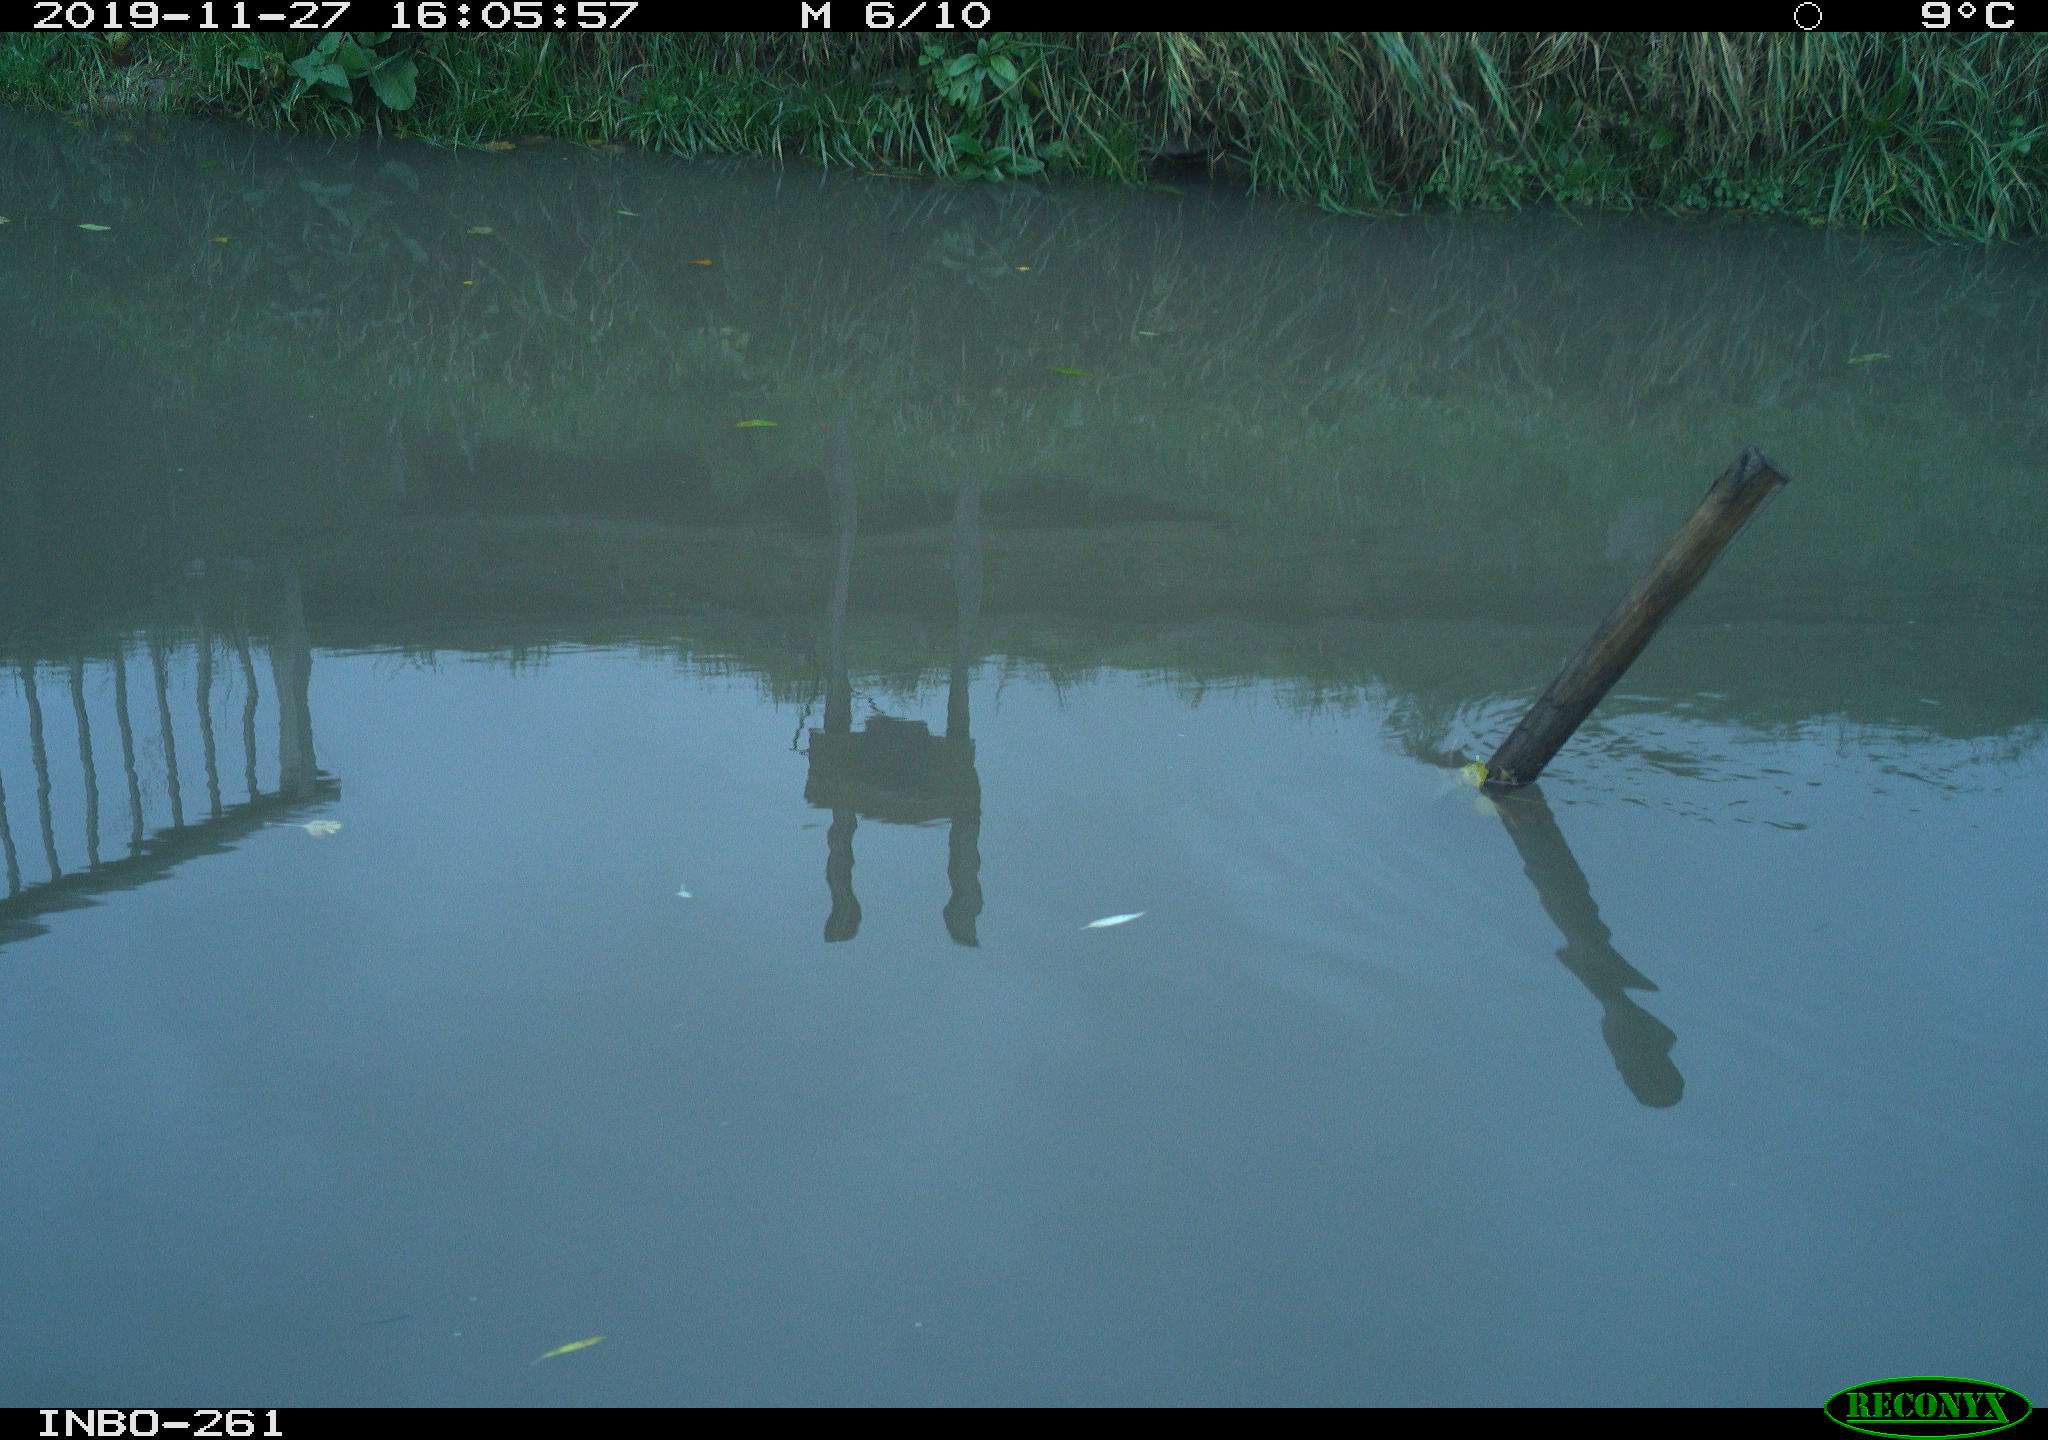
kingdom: Animalia
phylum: Chordata
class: Aves
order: Gruiformes
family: Rallidae
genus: Gallinula
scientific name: Gallinula chloropus
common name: Common moorhen
